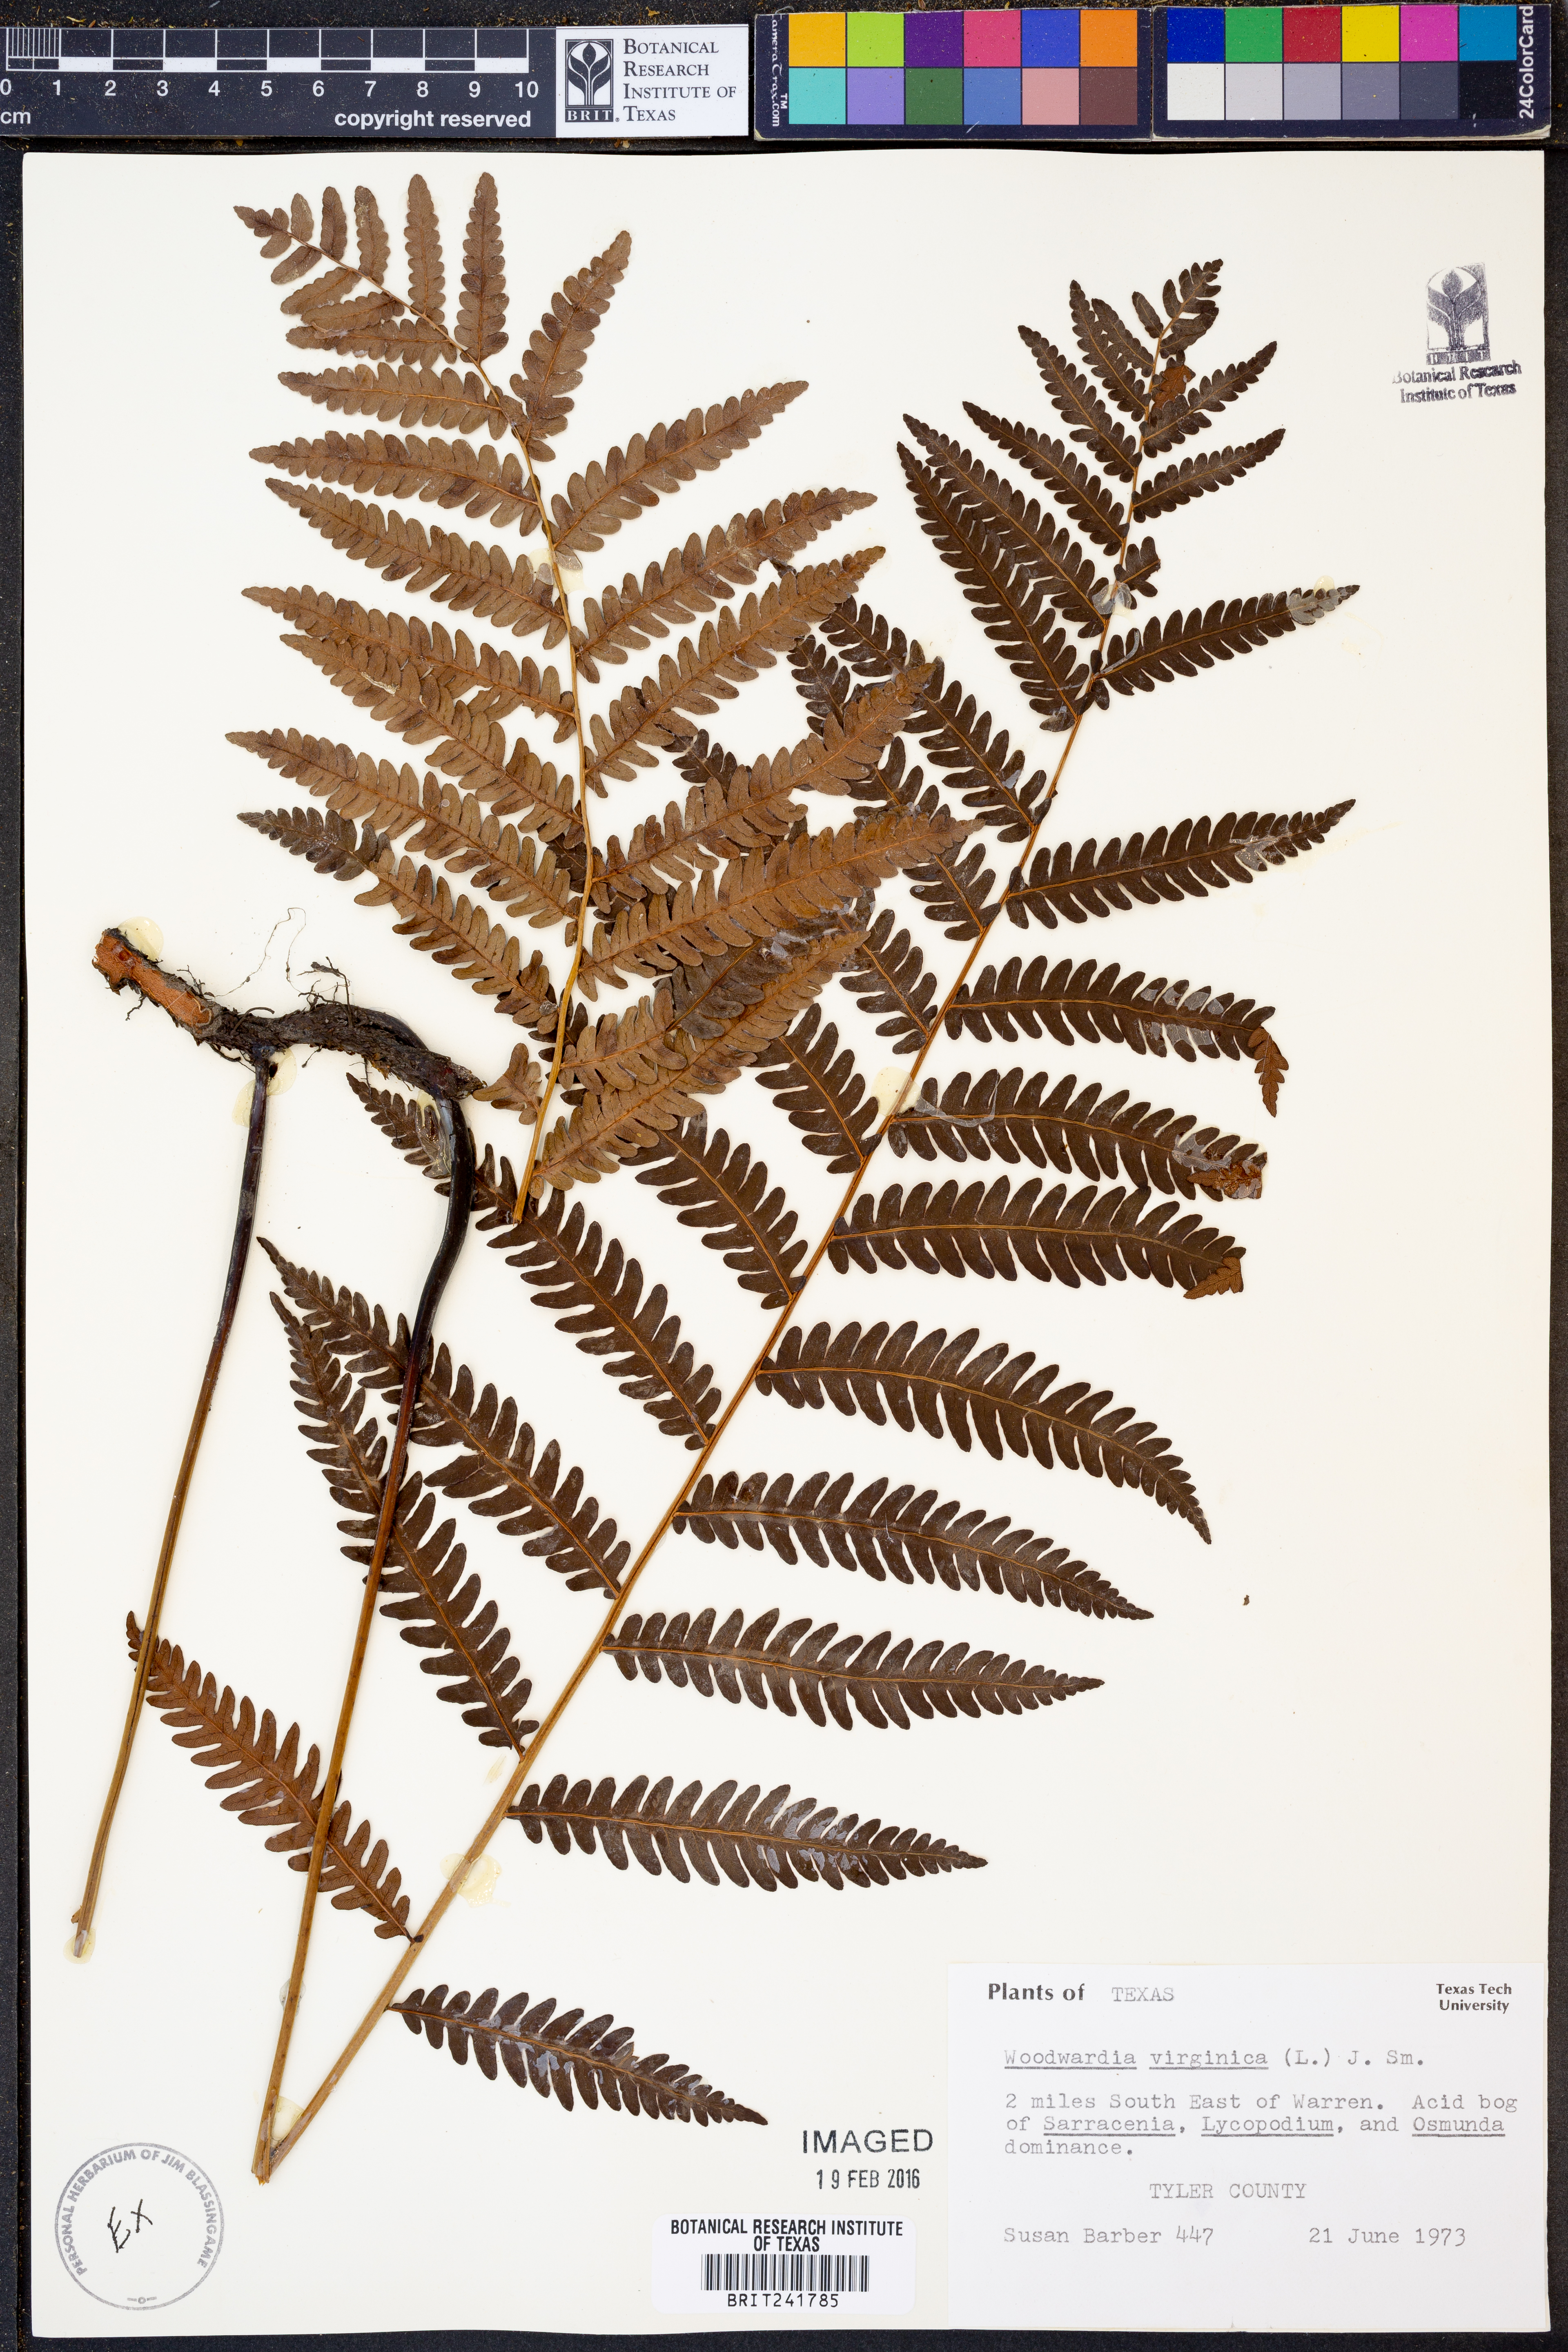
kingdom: Plantae
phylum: Tracheophyta
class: Polypodiopsida
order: Polypodiales
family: Blechnaceae
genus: Anchistea
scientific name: Anchistea virginica
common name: Virginia chain fern
